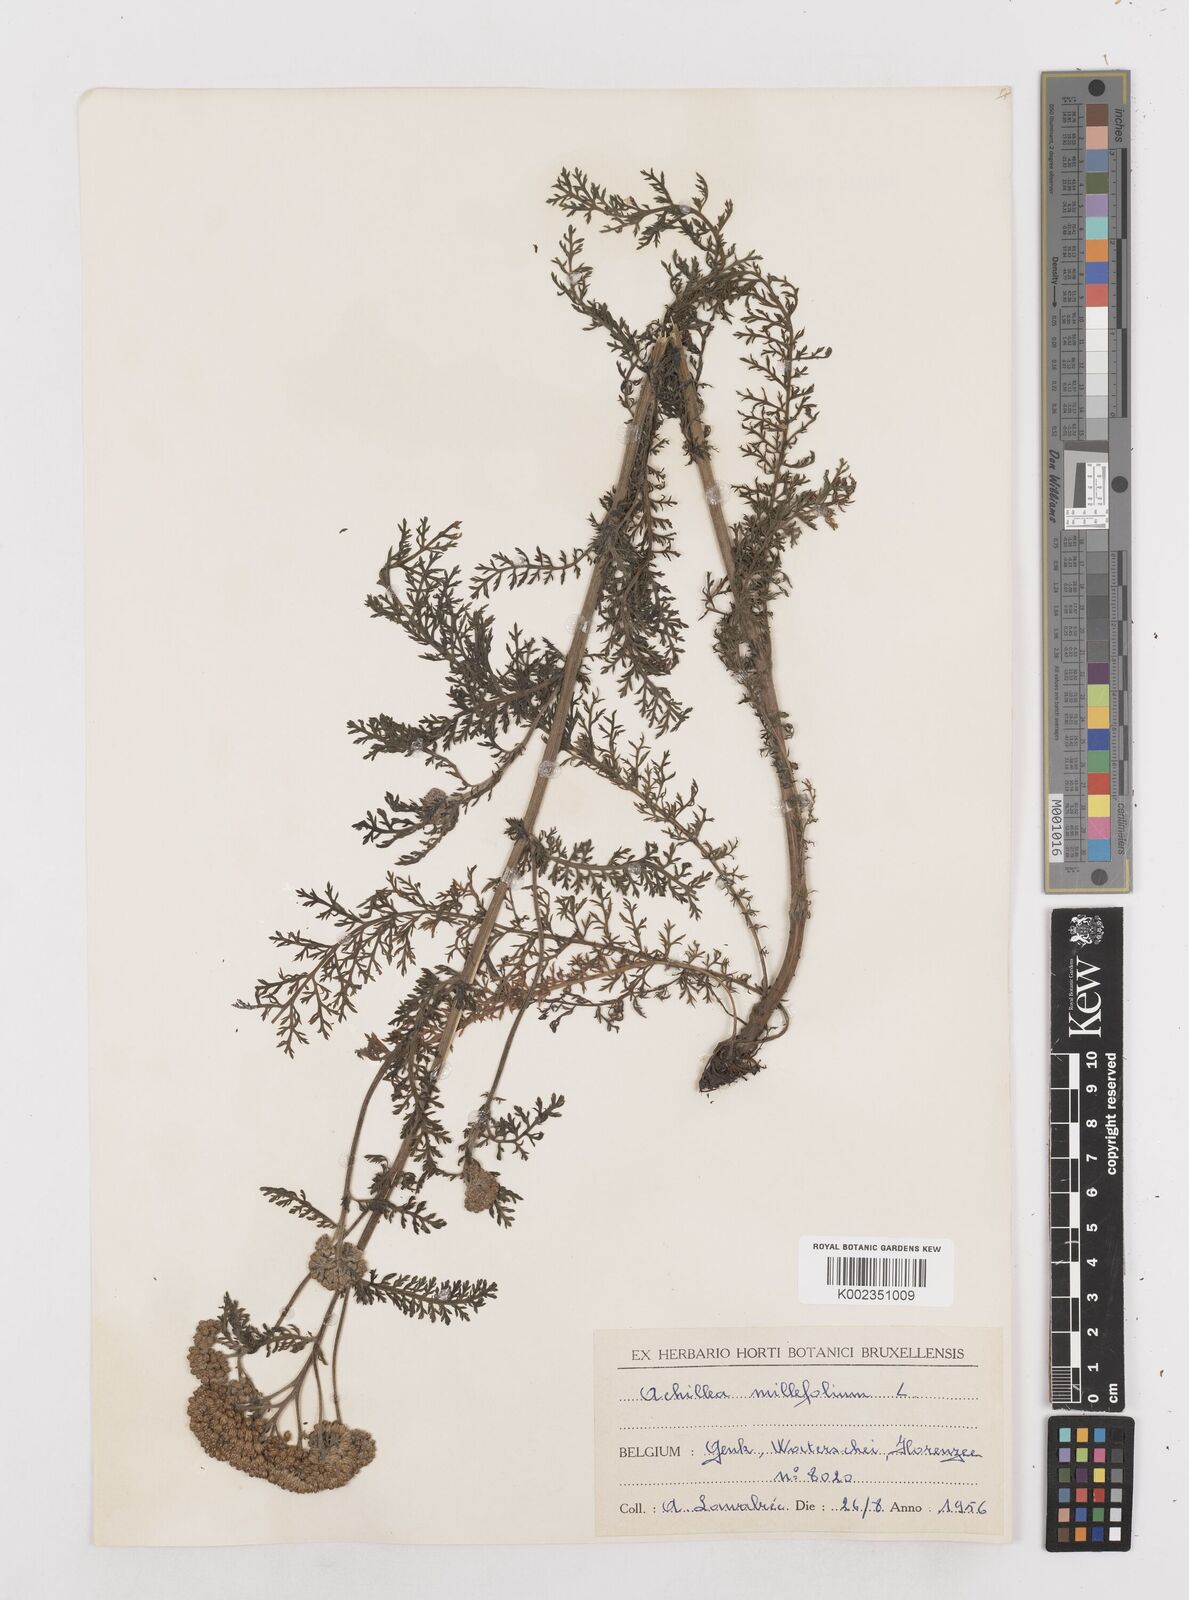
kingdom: Plantae
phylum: Tracheophyta
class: Magnoliopsida
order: Asterales
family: Asteraceae
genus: Achillea
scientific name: Achillea millefolium
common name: Yarrow
